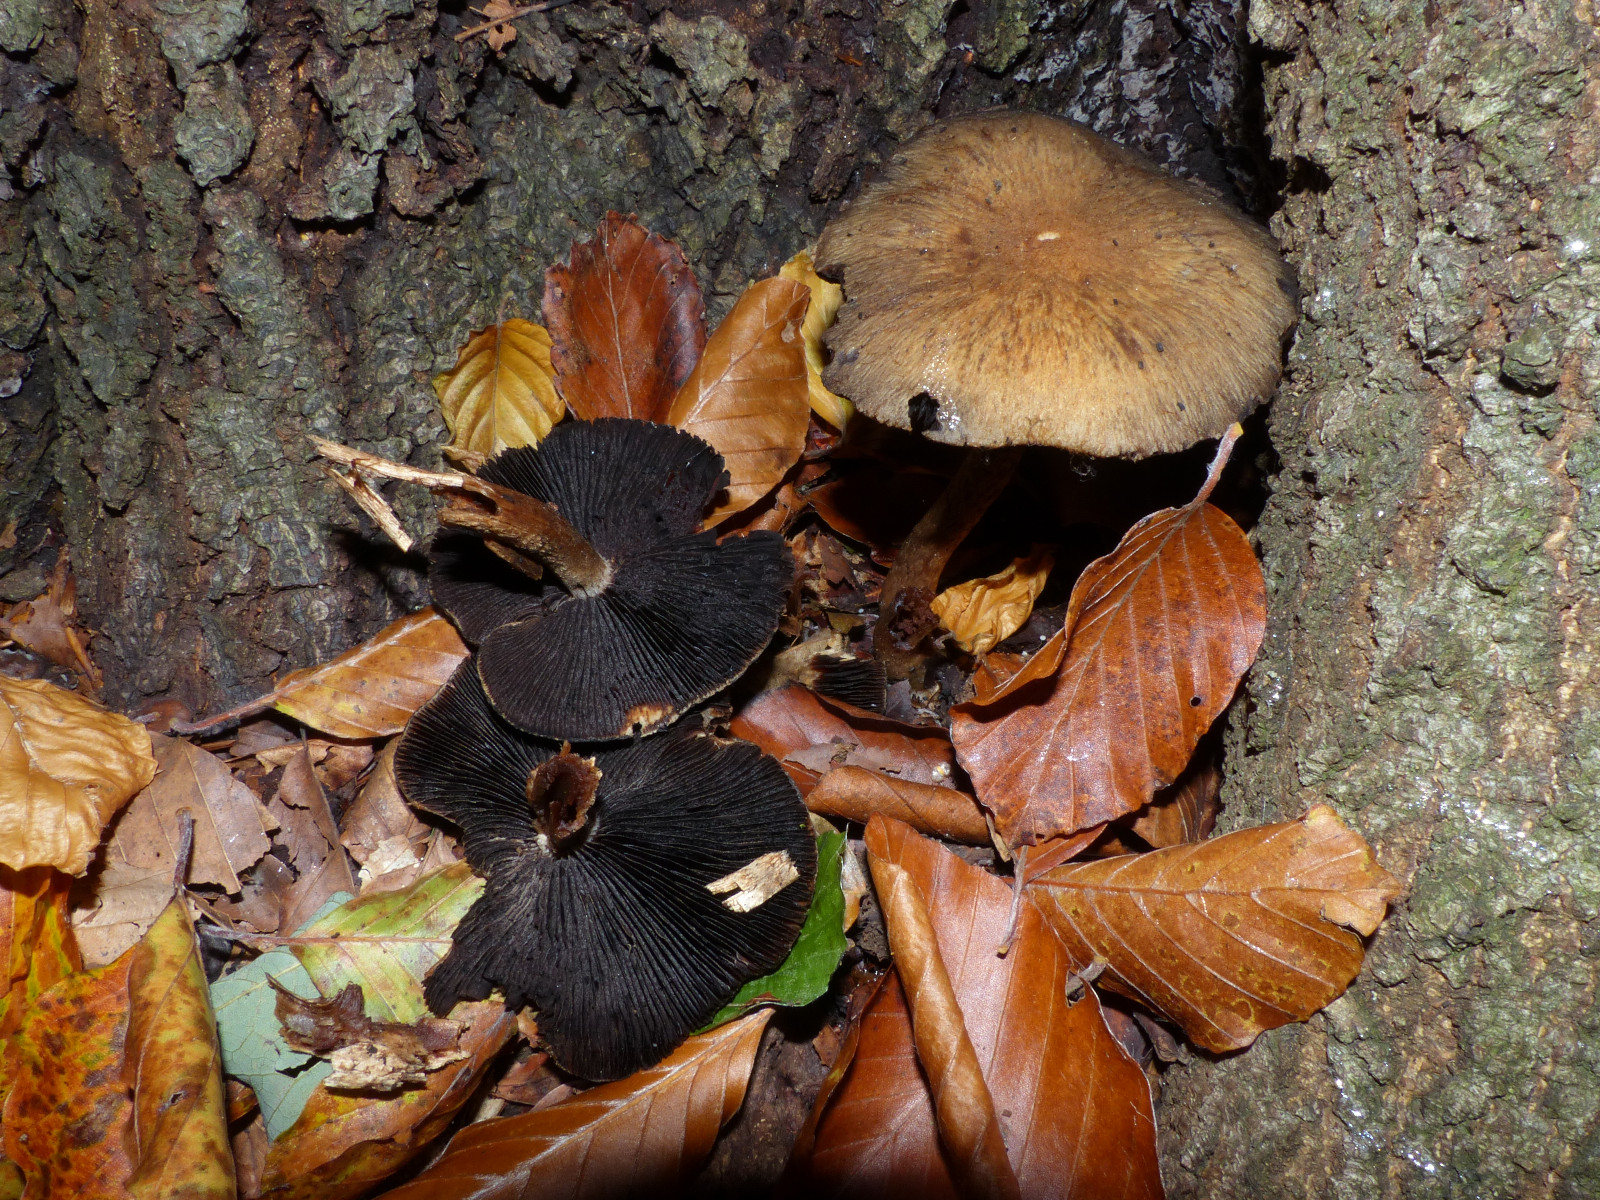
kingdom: Fungi
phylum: Basidiomycota
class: Agaricomycetes
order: Agaricales
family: Psathyrellaceae
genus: Lacrymaria
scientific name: Lacrymaria lacrymabunda
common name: grædende mørkhat
